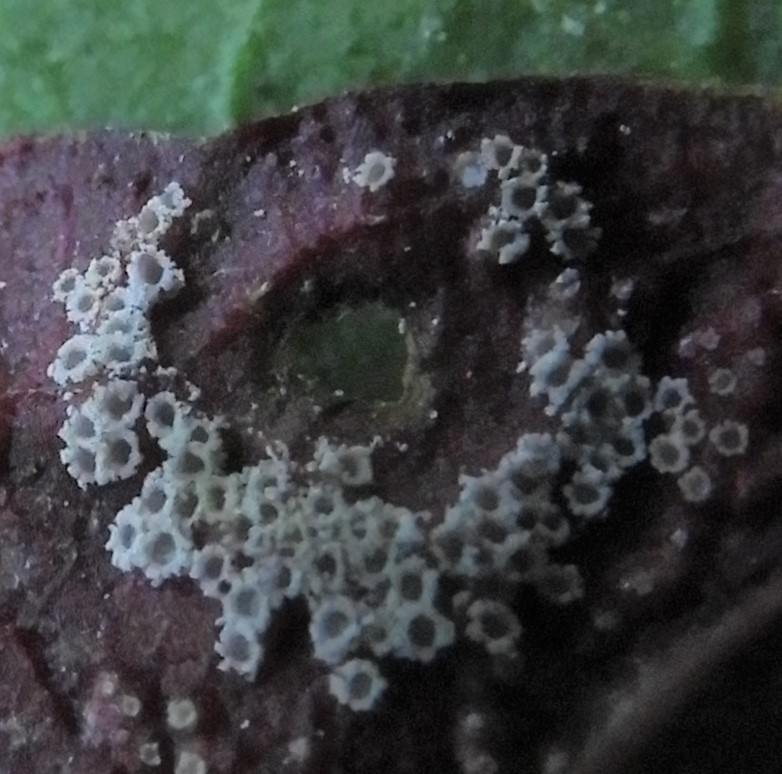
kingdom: Fungi
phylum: Basidiomycota
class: Pucciniomycetes
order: Pucciniales
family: Pucciniaceae
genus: Puccinia
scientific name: Puccinia phragmitis
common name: tagrør-tvecellerust
